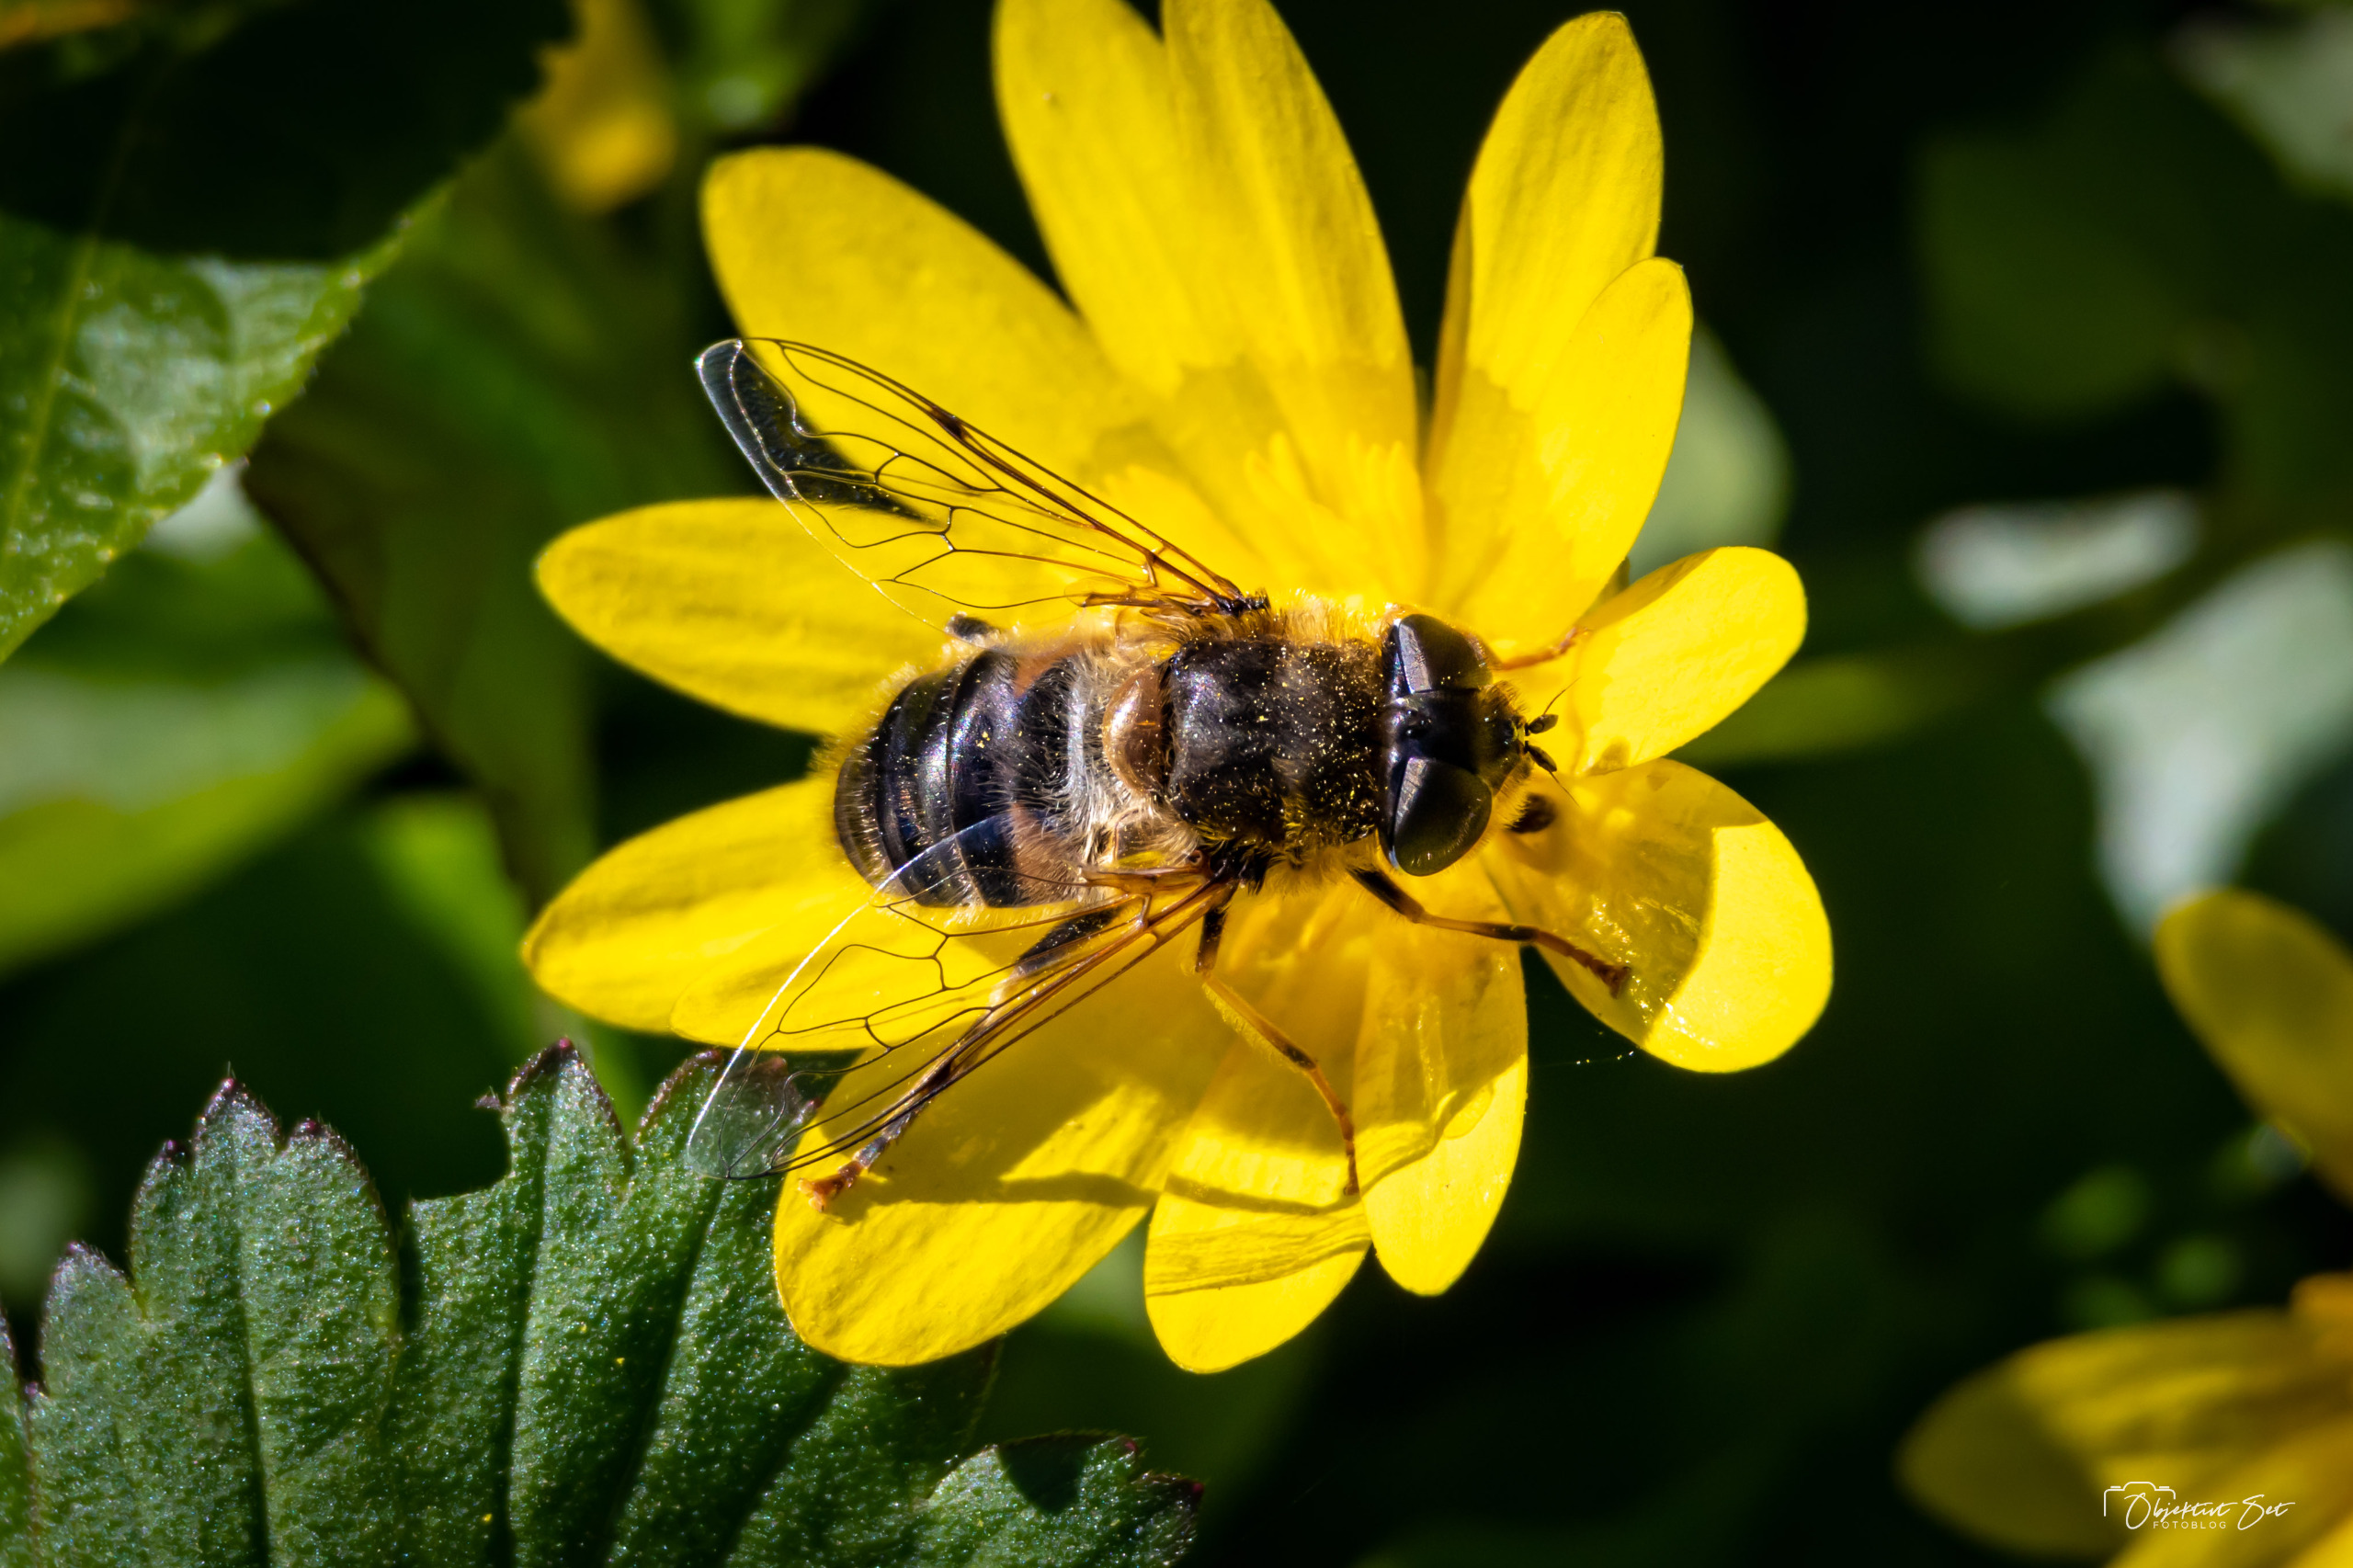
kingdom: Animalia
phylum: Arthropoda
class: Insecta
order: Diptera
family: Syrphidae
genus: Eristalis
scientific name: Eristalis pertinax
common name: Gulfodet dyndflue
